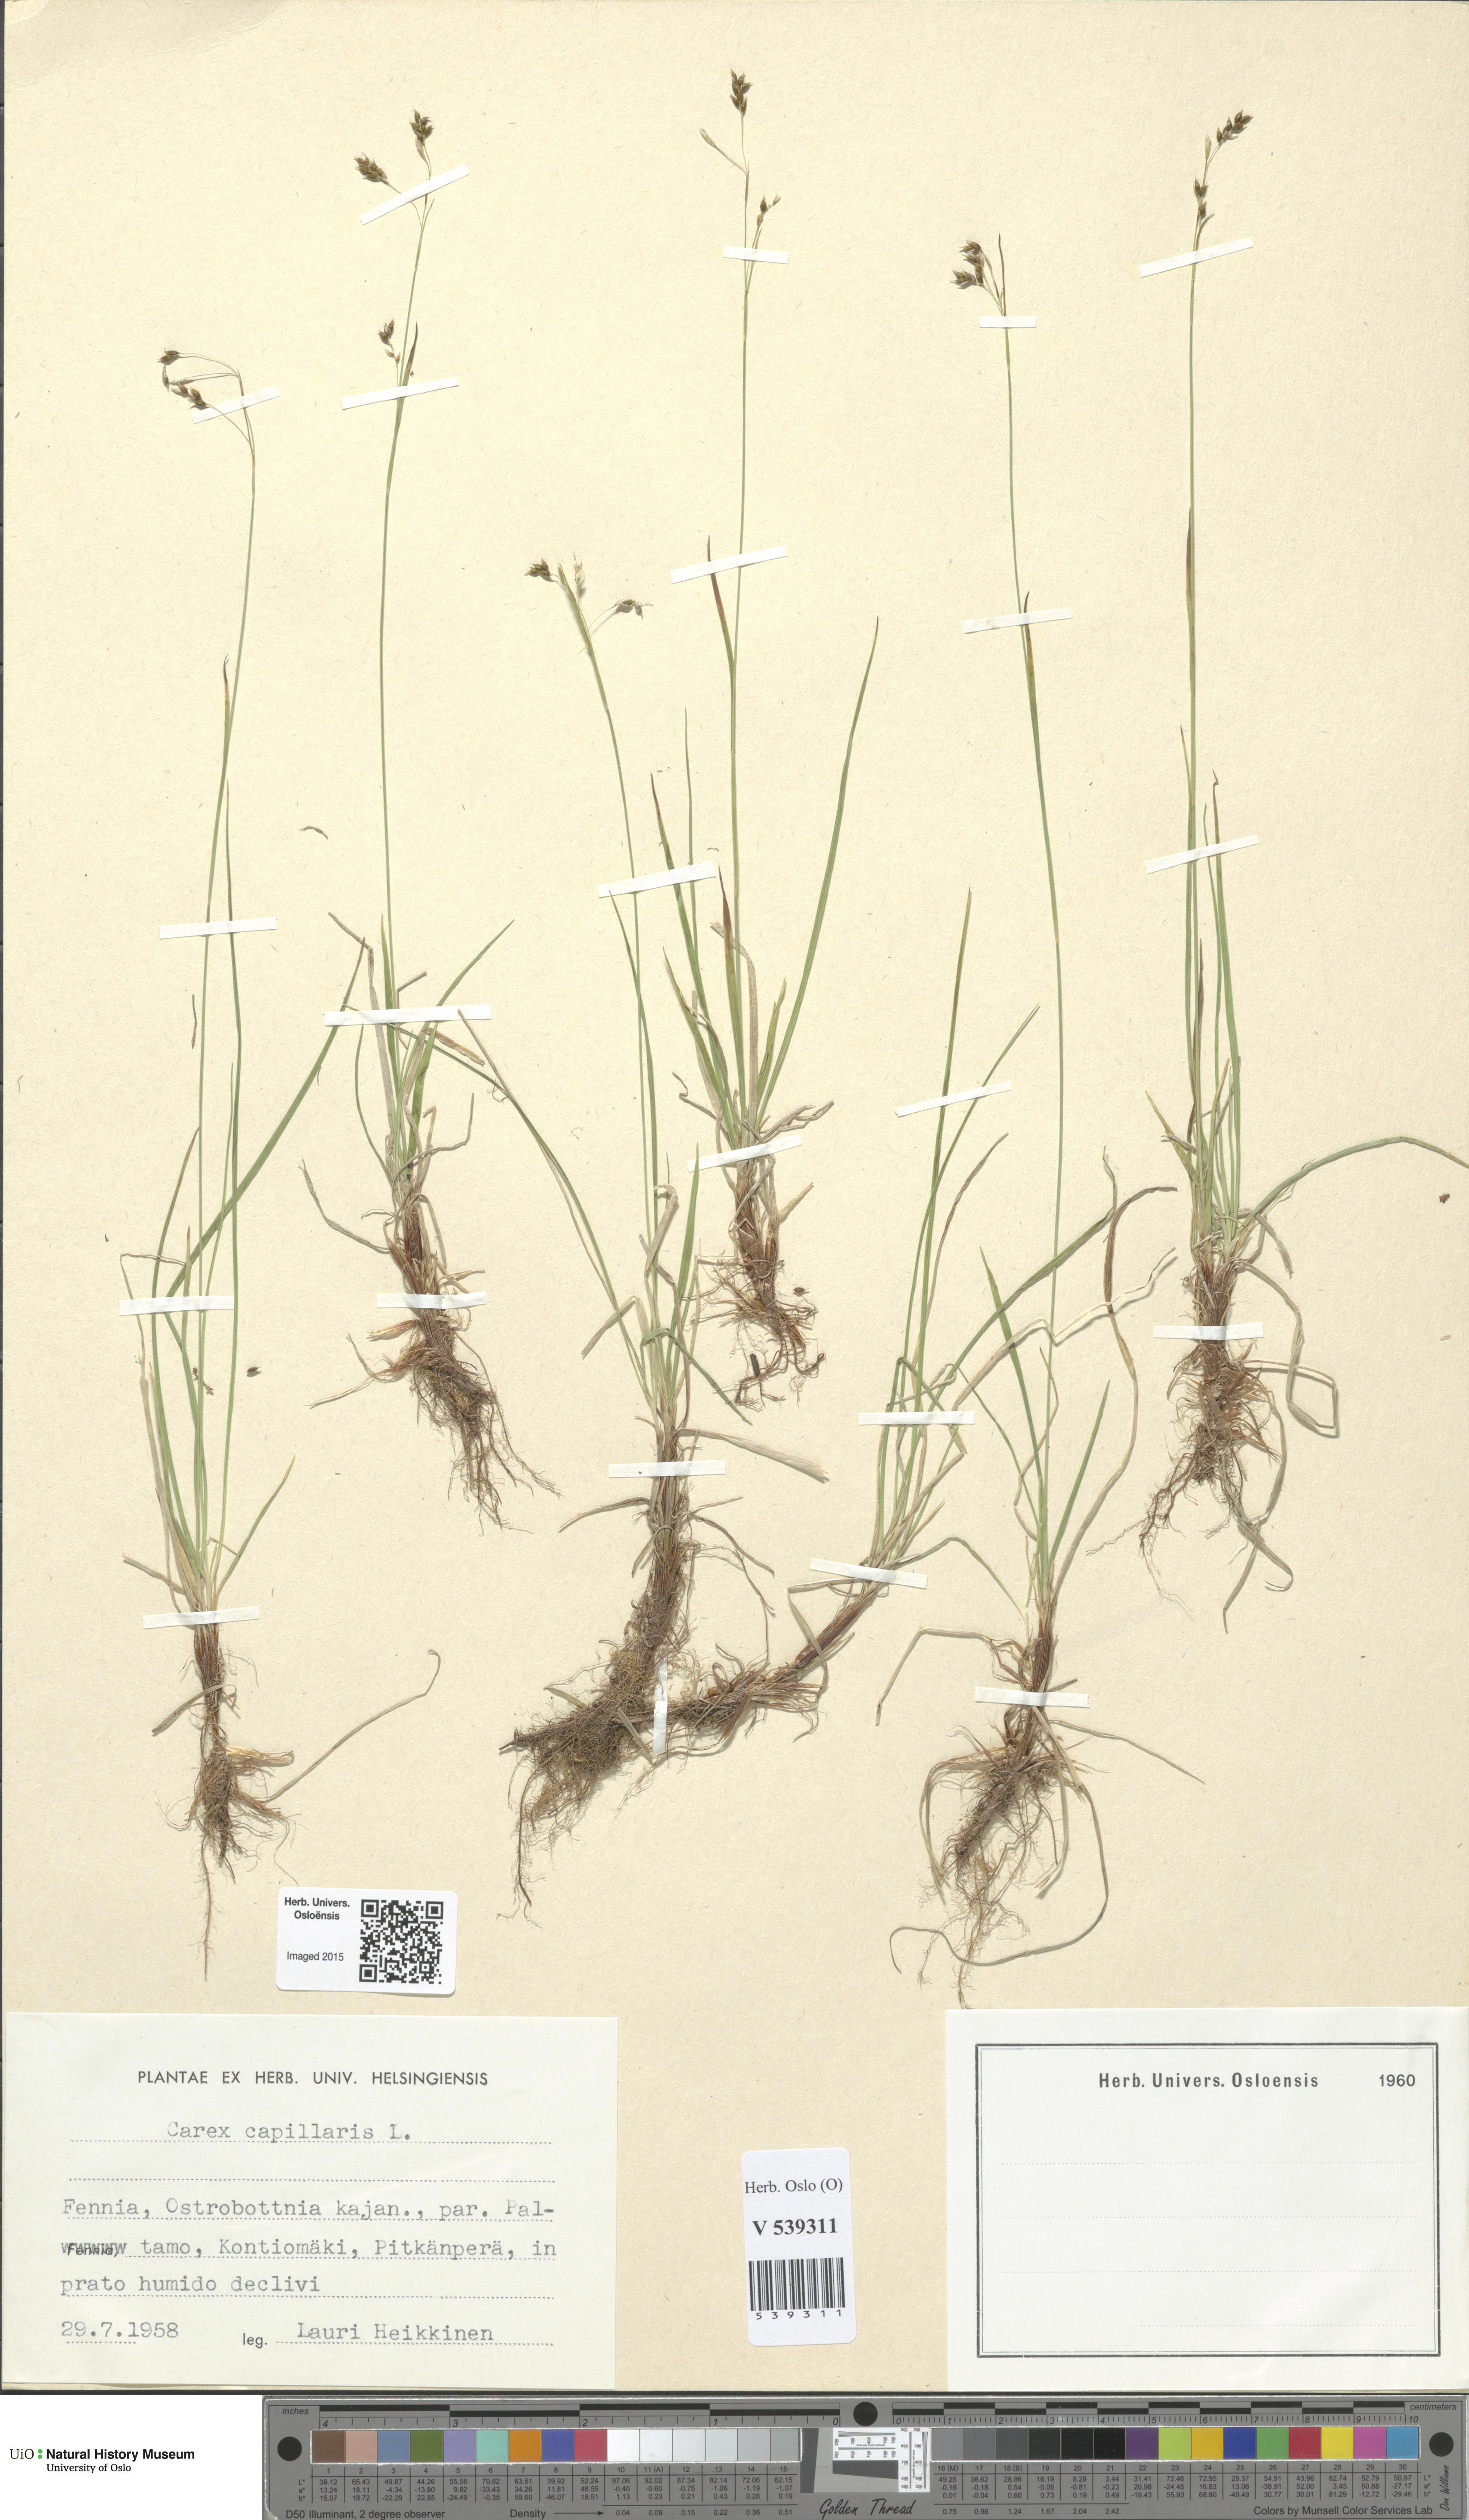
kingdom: Plantae
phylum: Tracheophyta
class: Liliopsida
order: Poales
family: Cyperaceae
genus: Carex
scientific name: Carex capillaris
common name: Hair sedge
